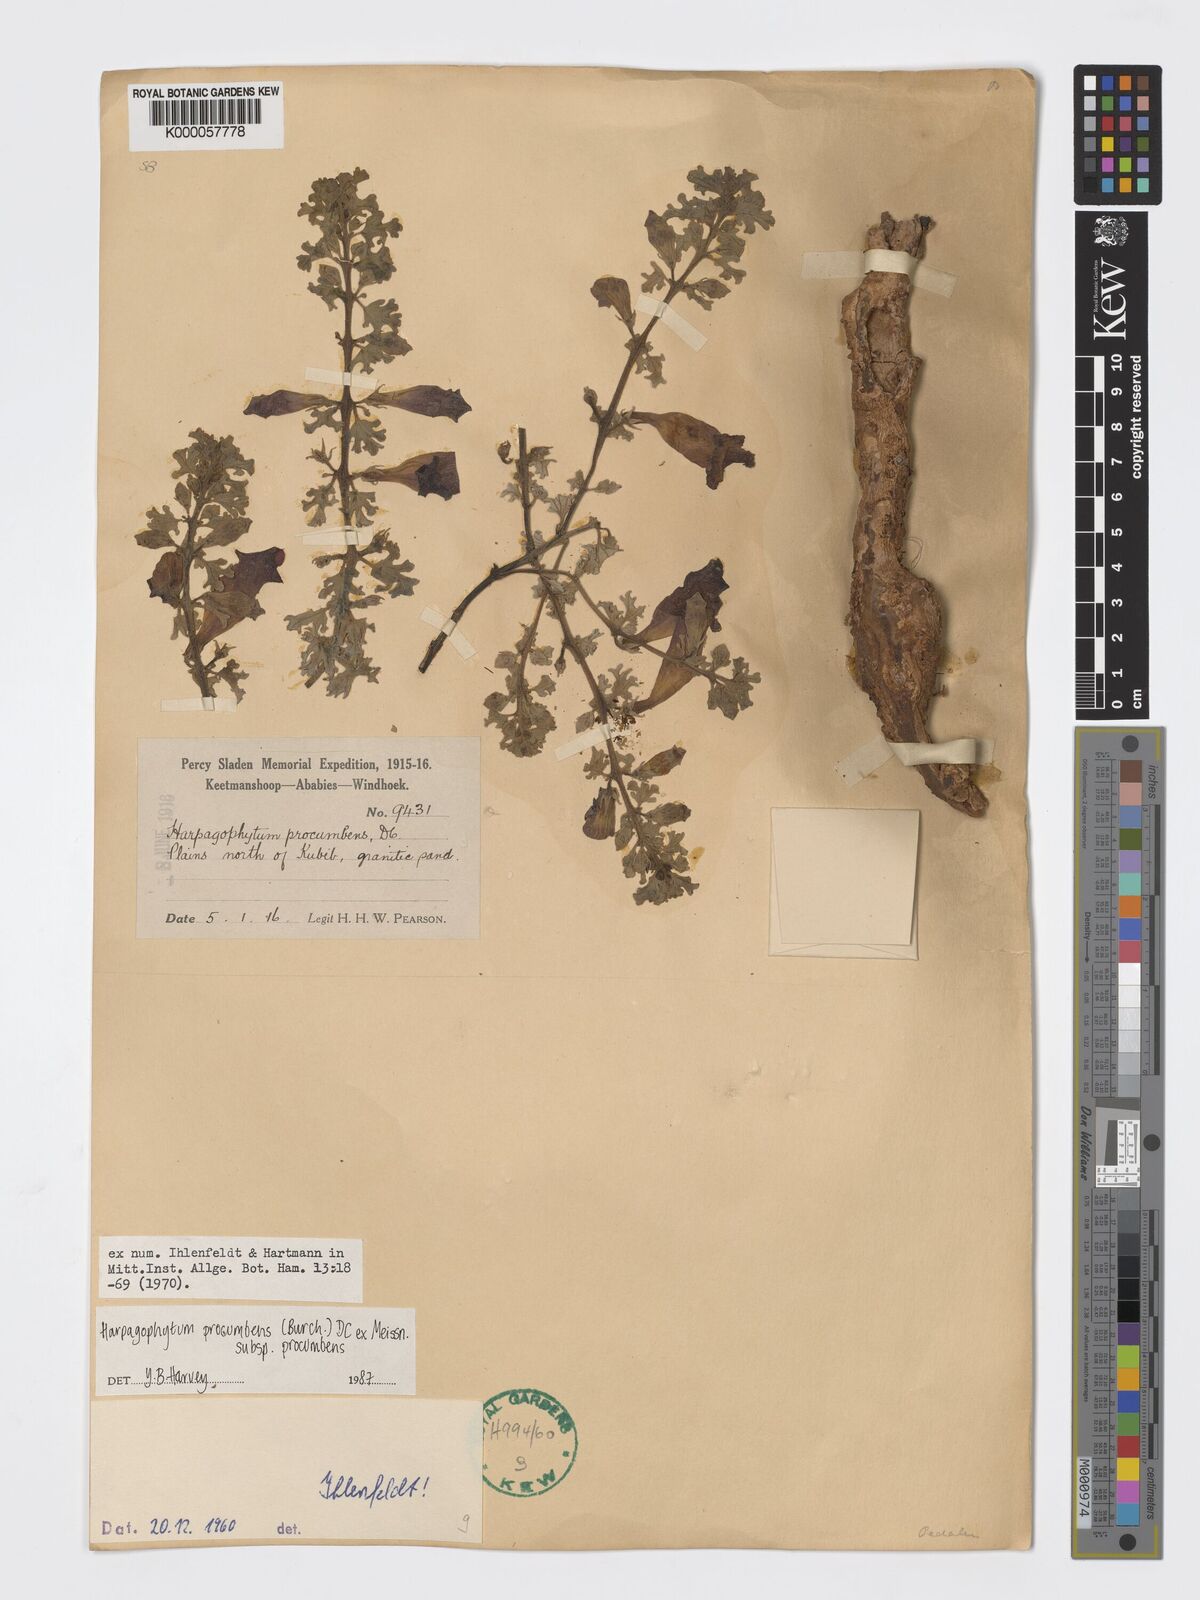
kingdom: Plantae
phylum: Tracheophyta
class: Magnoliopsida
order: Lamiales
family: Pedaliaceae
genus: Harpagophytum
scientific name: Harpagophytum procumbens
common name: Grappleplant
